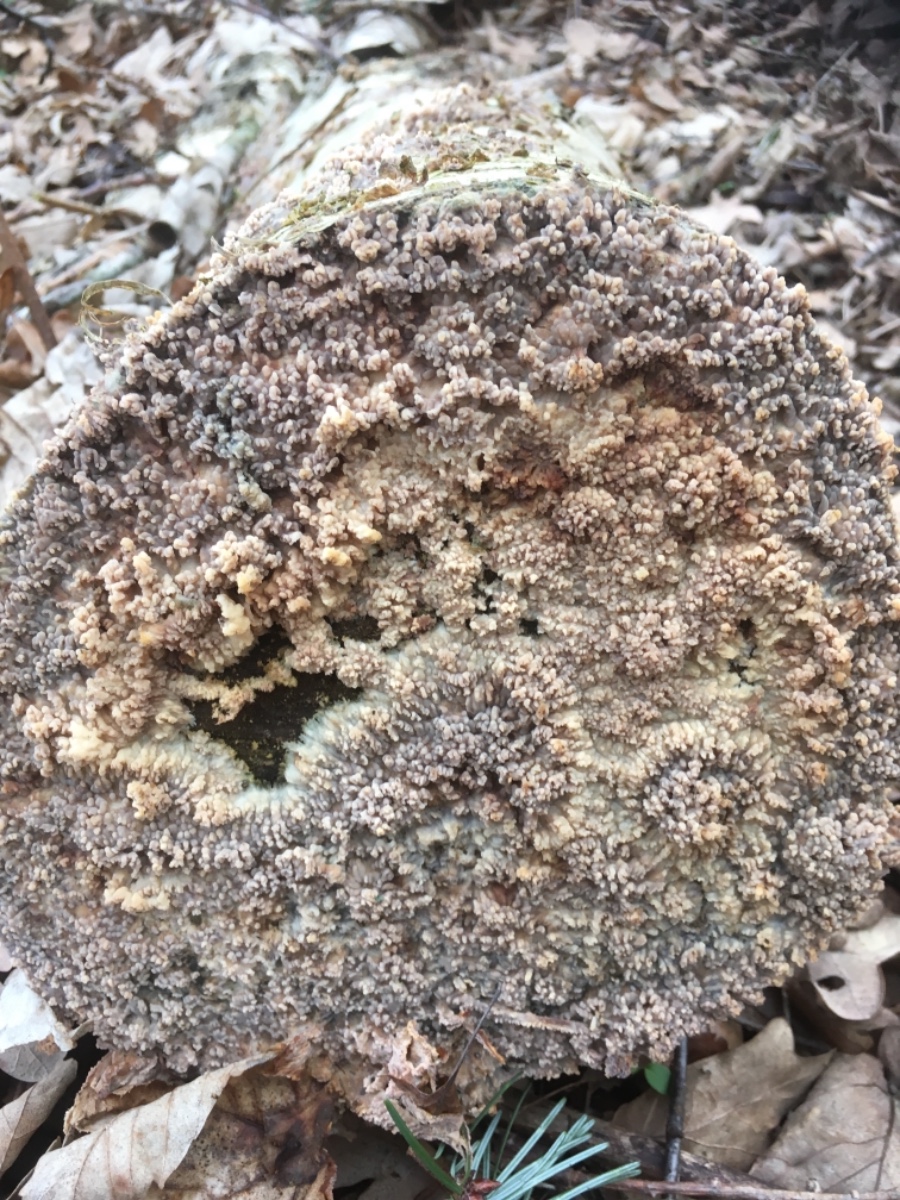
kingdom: Fungi
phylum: Basidiomycota
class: Agaricomycetes
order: Polyporales
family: Meruliaceae
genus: Phlebia
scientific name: Phlebia radiata
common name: stråle-åresvamp
